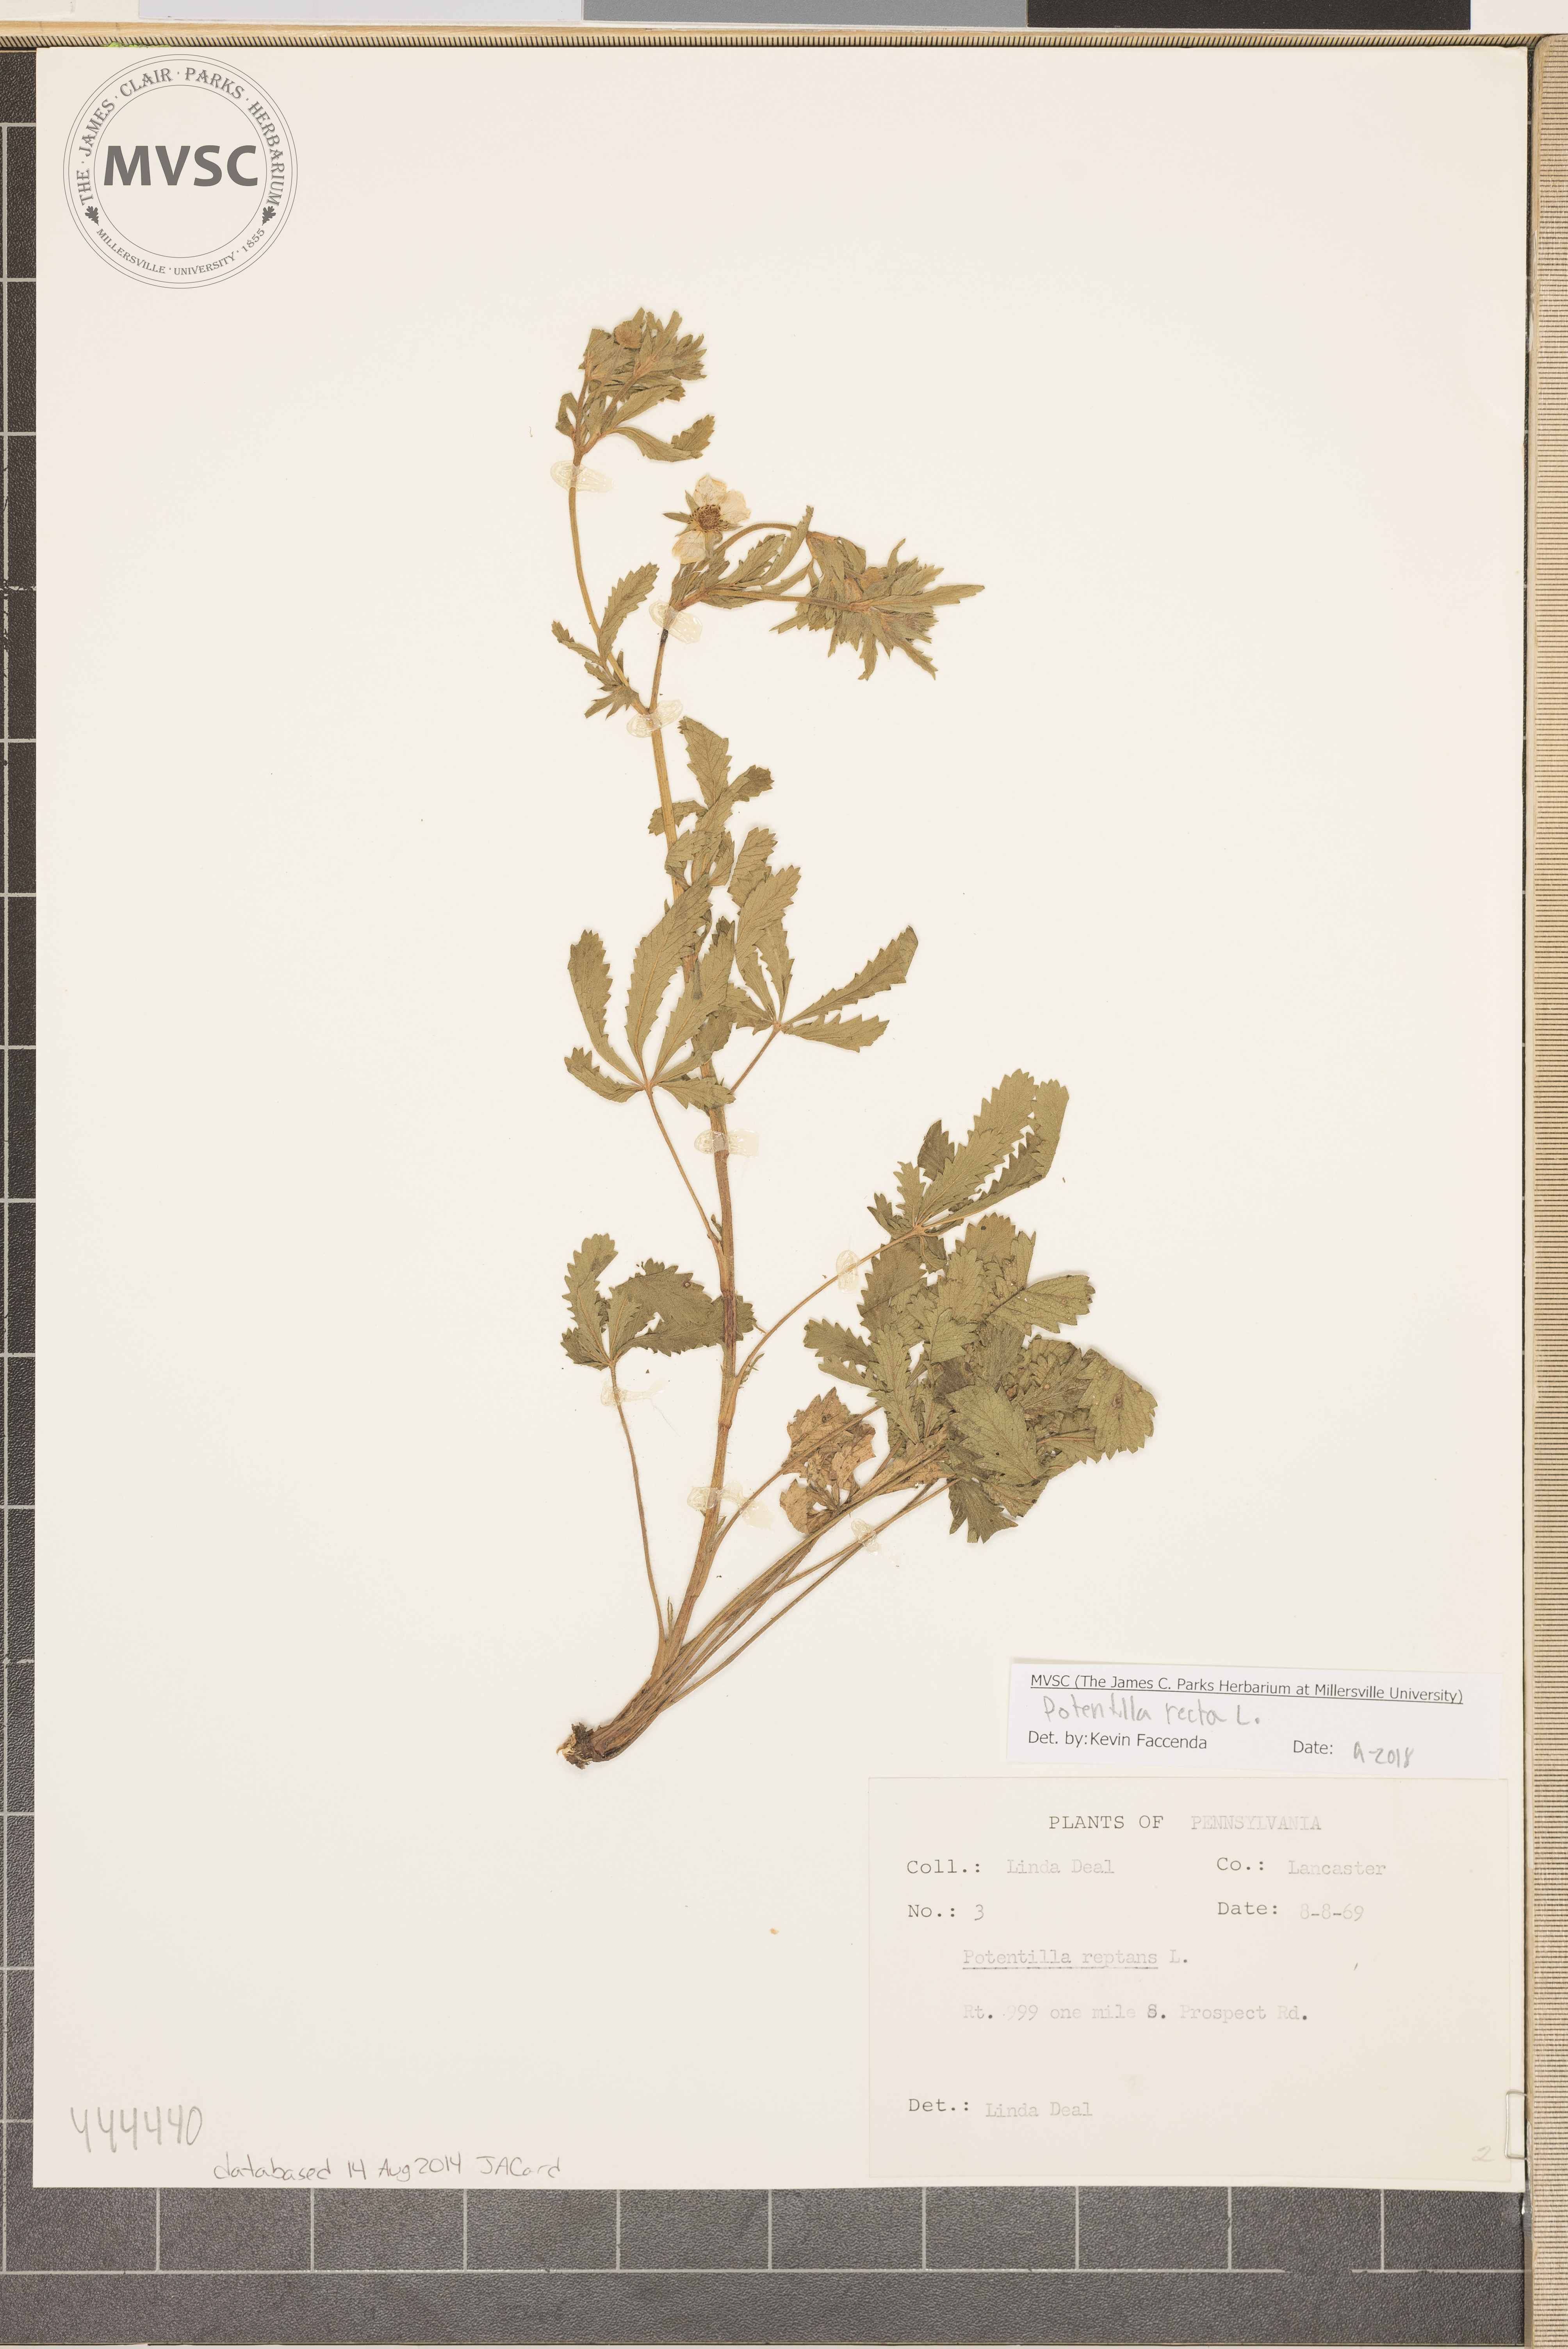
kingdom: Plantae
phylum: Tracheophyta
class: Magnoliopsida
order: Rosales
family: Rosaceae
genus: Potentilla
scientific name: Potentilla recta
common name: Sulphur cinquefoil
